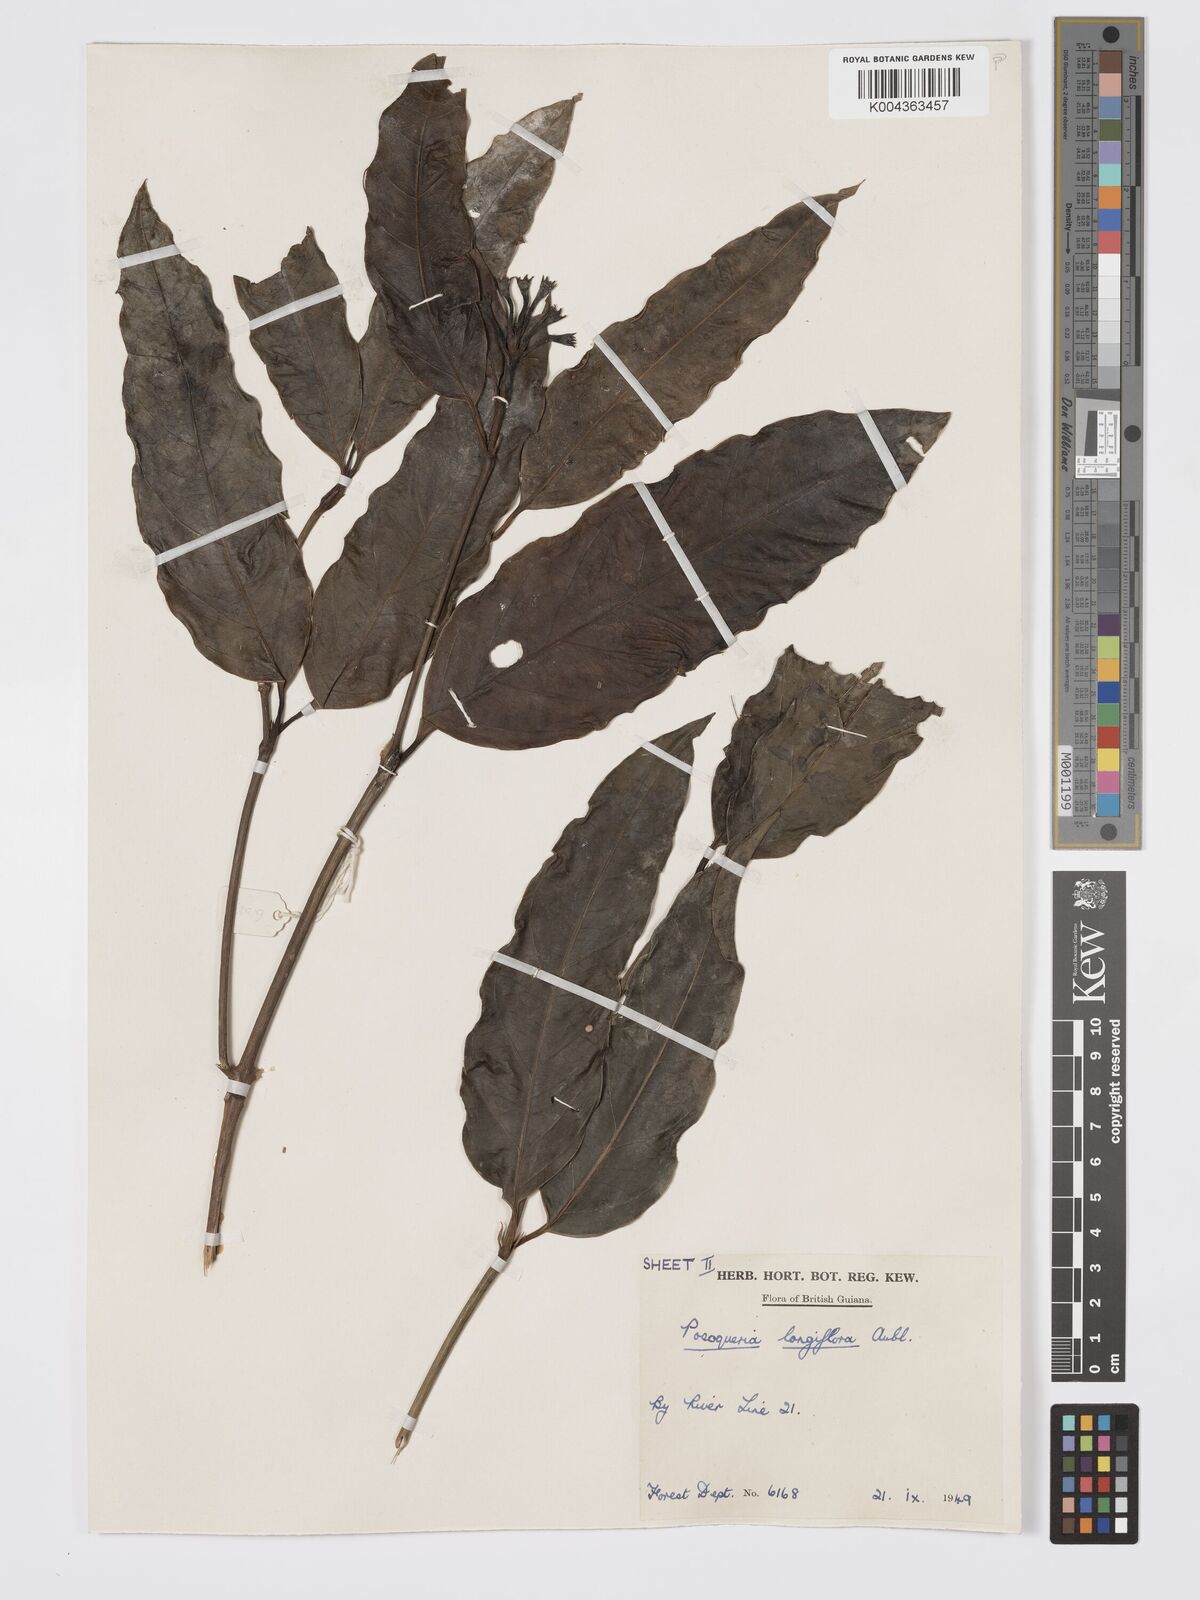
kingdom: Plantae
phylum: Tracheophyta
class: Magnoliopsida
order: Gentianales
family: Rubiaceae
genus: Posoqueria
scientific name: Posoqueria
